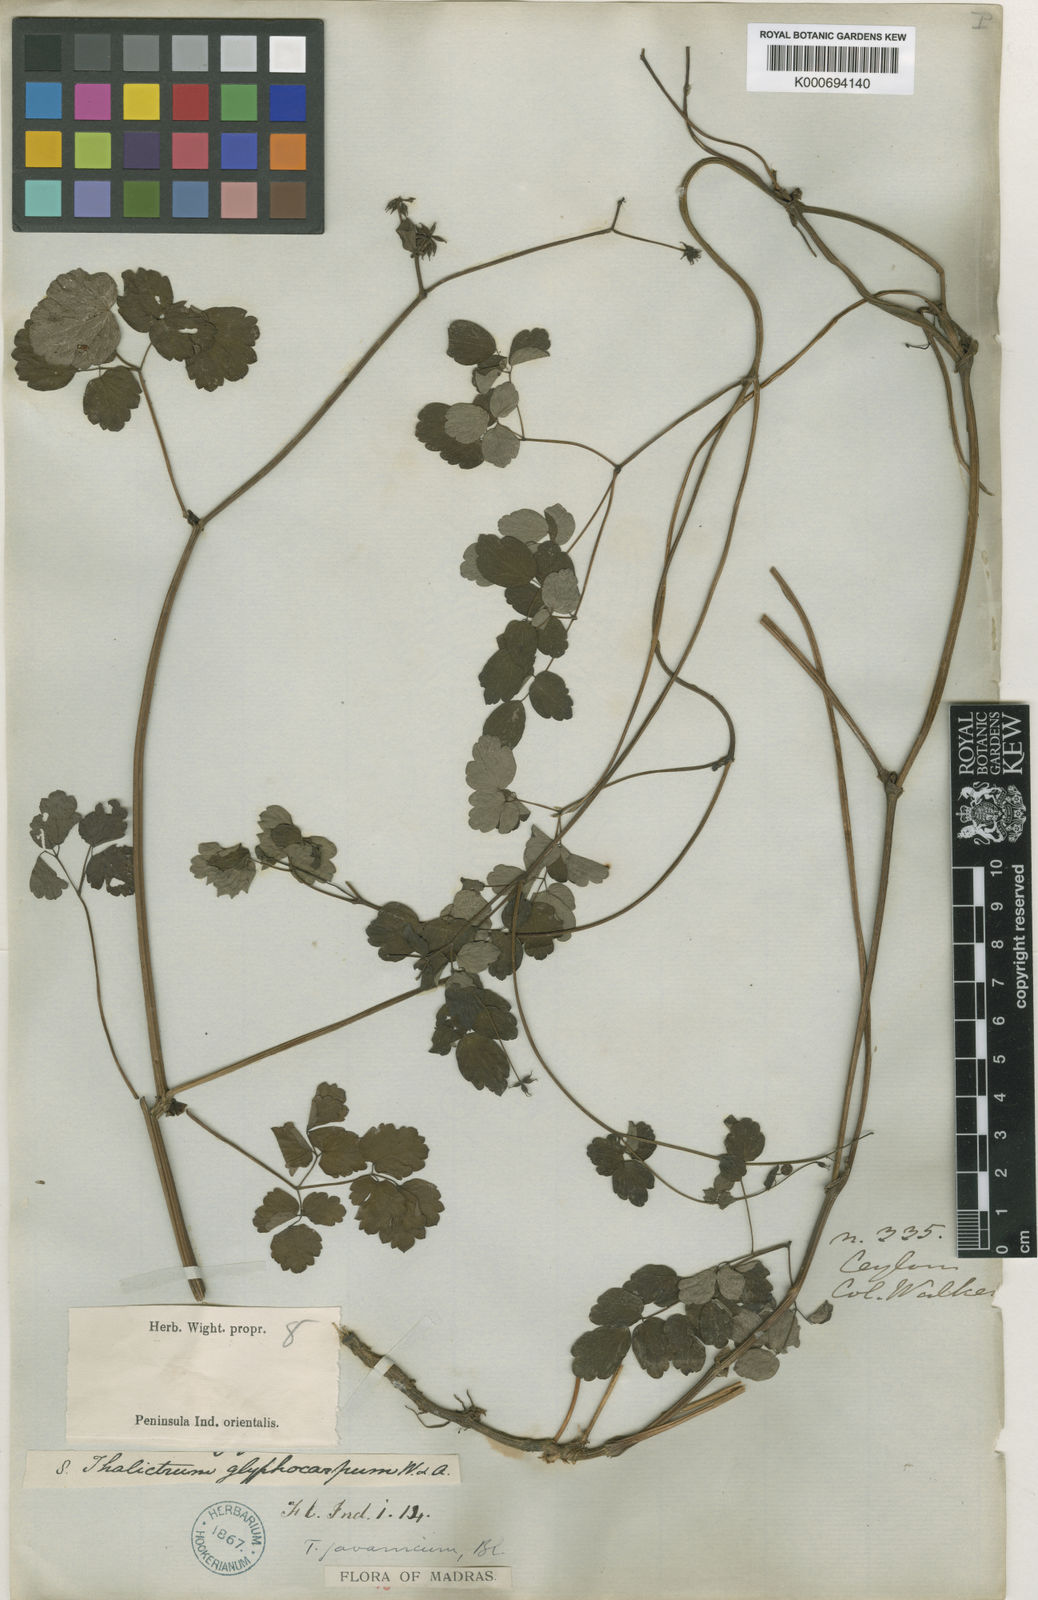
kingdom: Plantae
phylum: Tracheophyta
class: Magnoliopsida
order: Ranunculales
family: Ranunculaceae
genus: Thalictrum
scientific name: Thalictrum javanicum
